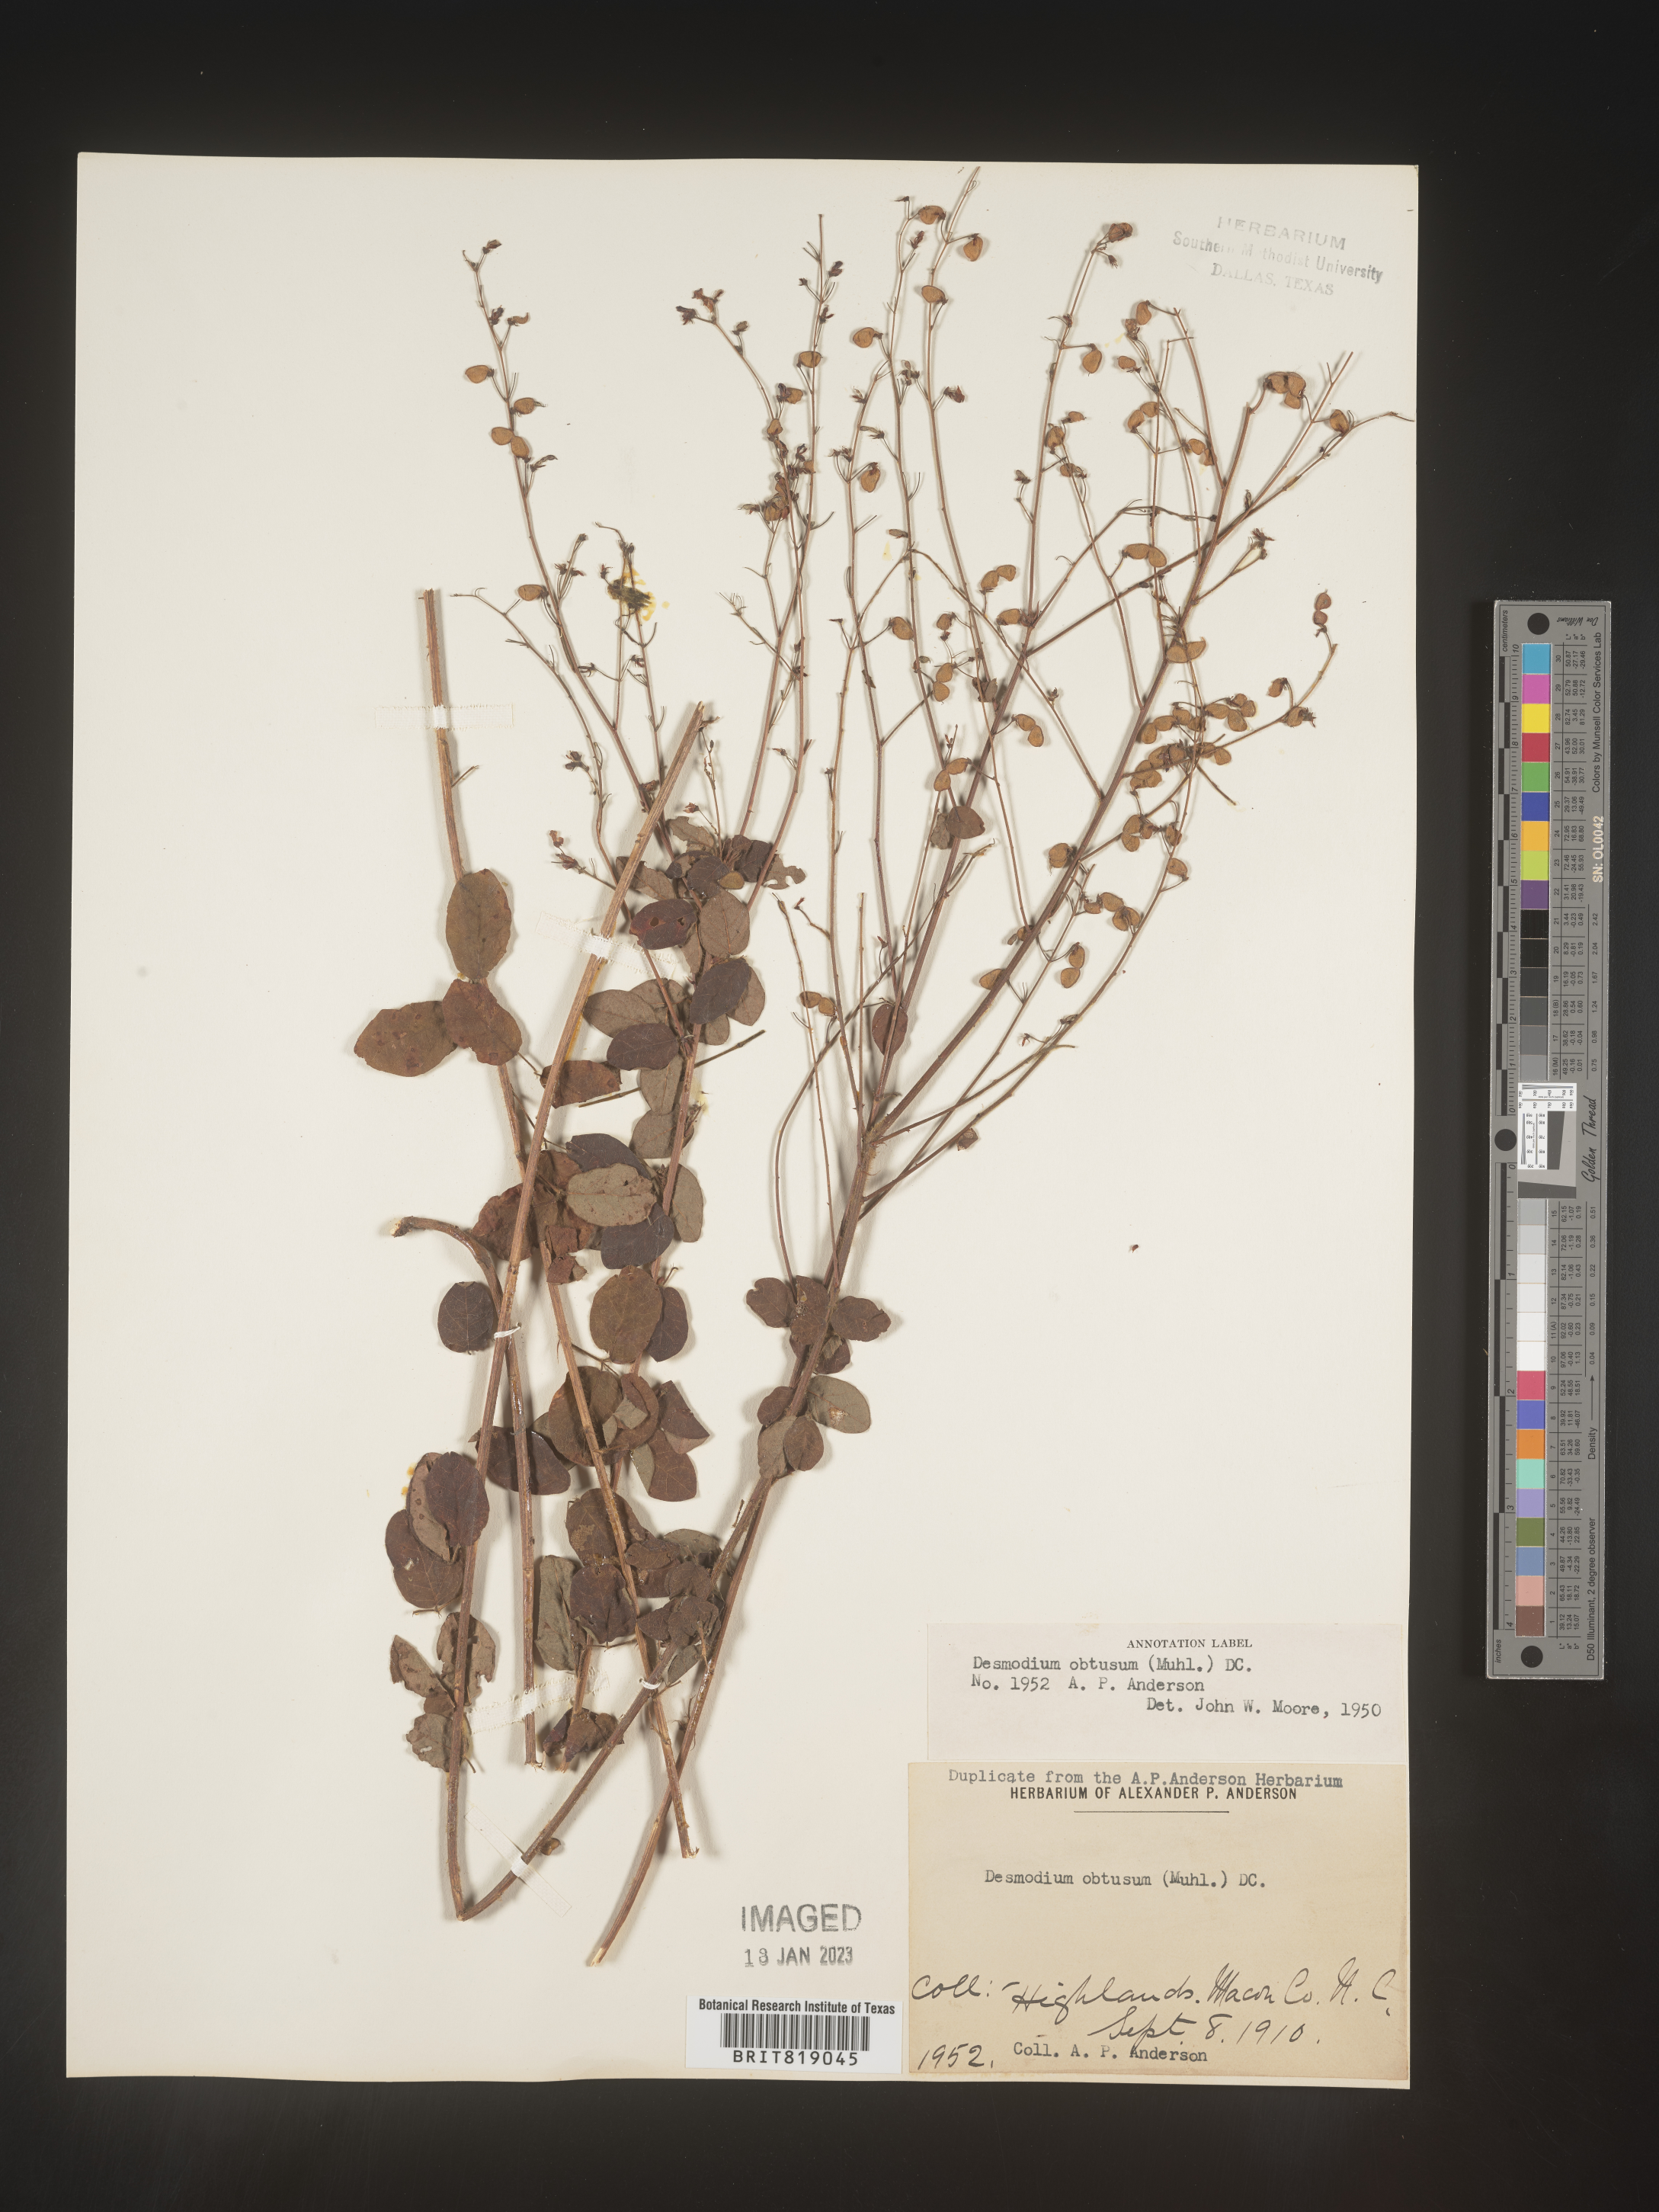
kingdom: Plantae
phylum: Tracheophyta
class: Magnoliopsida
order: Fabales
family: Fabaceae
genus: Desmodium
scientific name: Desmodium obtusum
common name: Stiff tick trefoil
